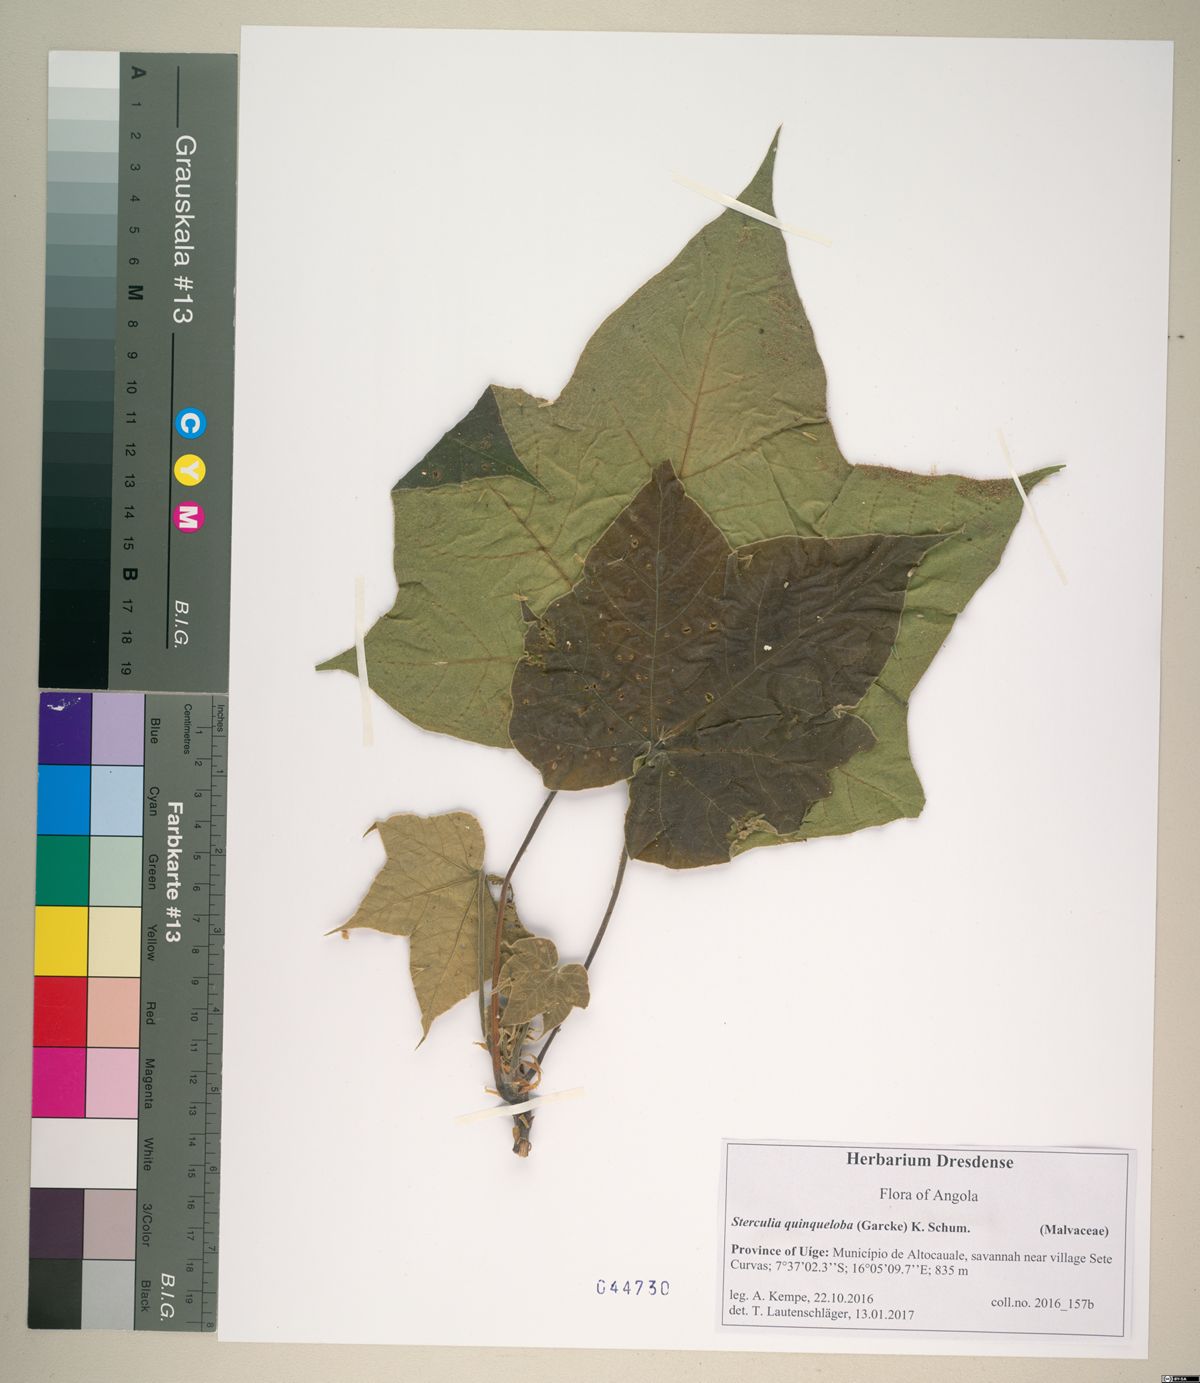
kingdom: Plantae
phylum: Tracheophyta
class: Magnoliopsida
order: Malvales
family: Malvaceae
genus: Sterculia
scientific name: Sterculia quinqueloba
